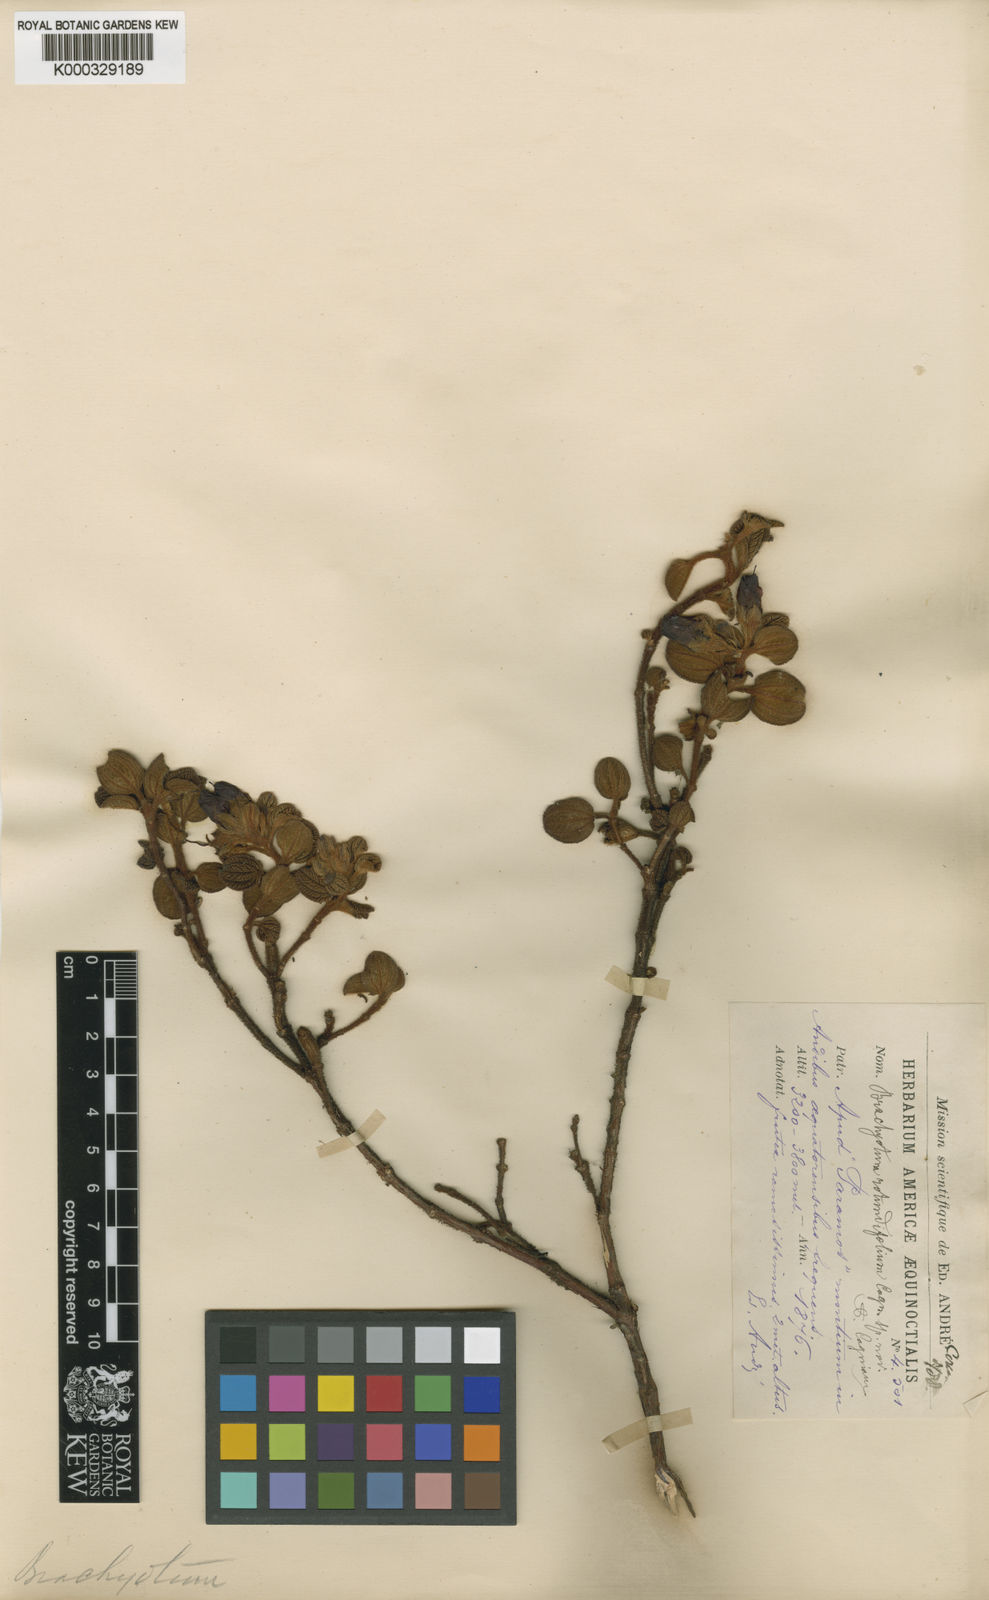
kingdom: Plantae
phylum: Tracheophyta
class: Magnoliopsida
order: Myrtales
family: Melastomataceae
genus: Brachyotum
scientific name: Brachyotum rotundifolium
